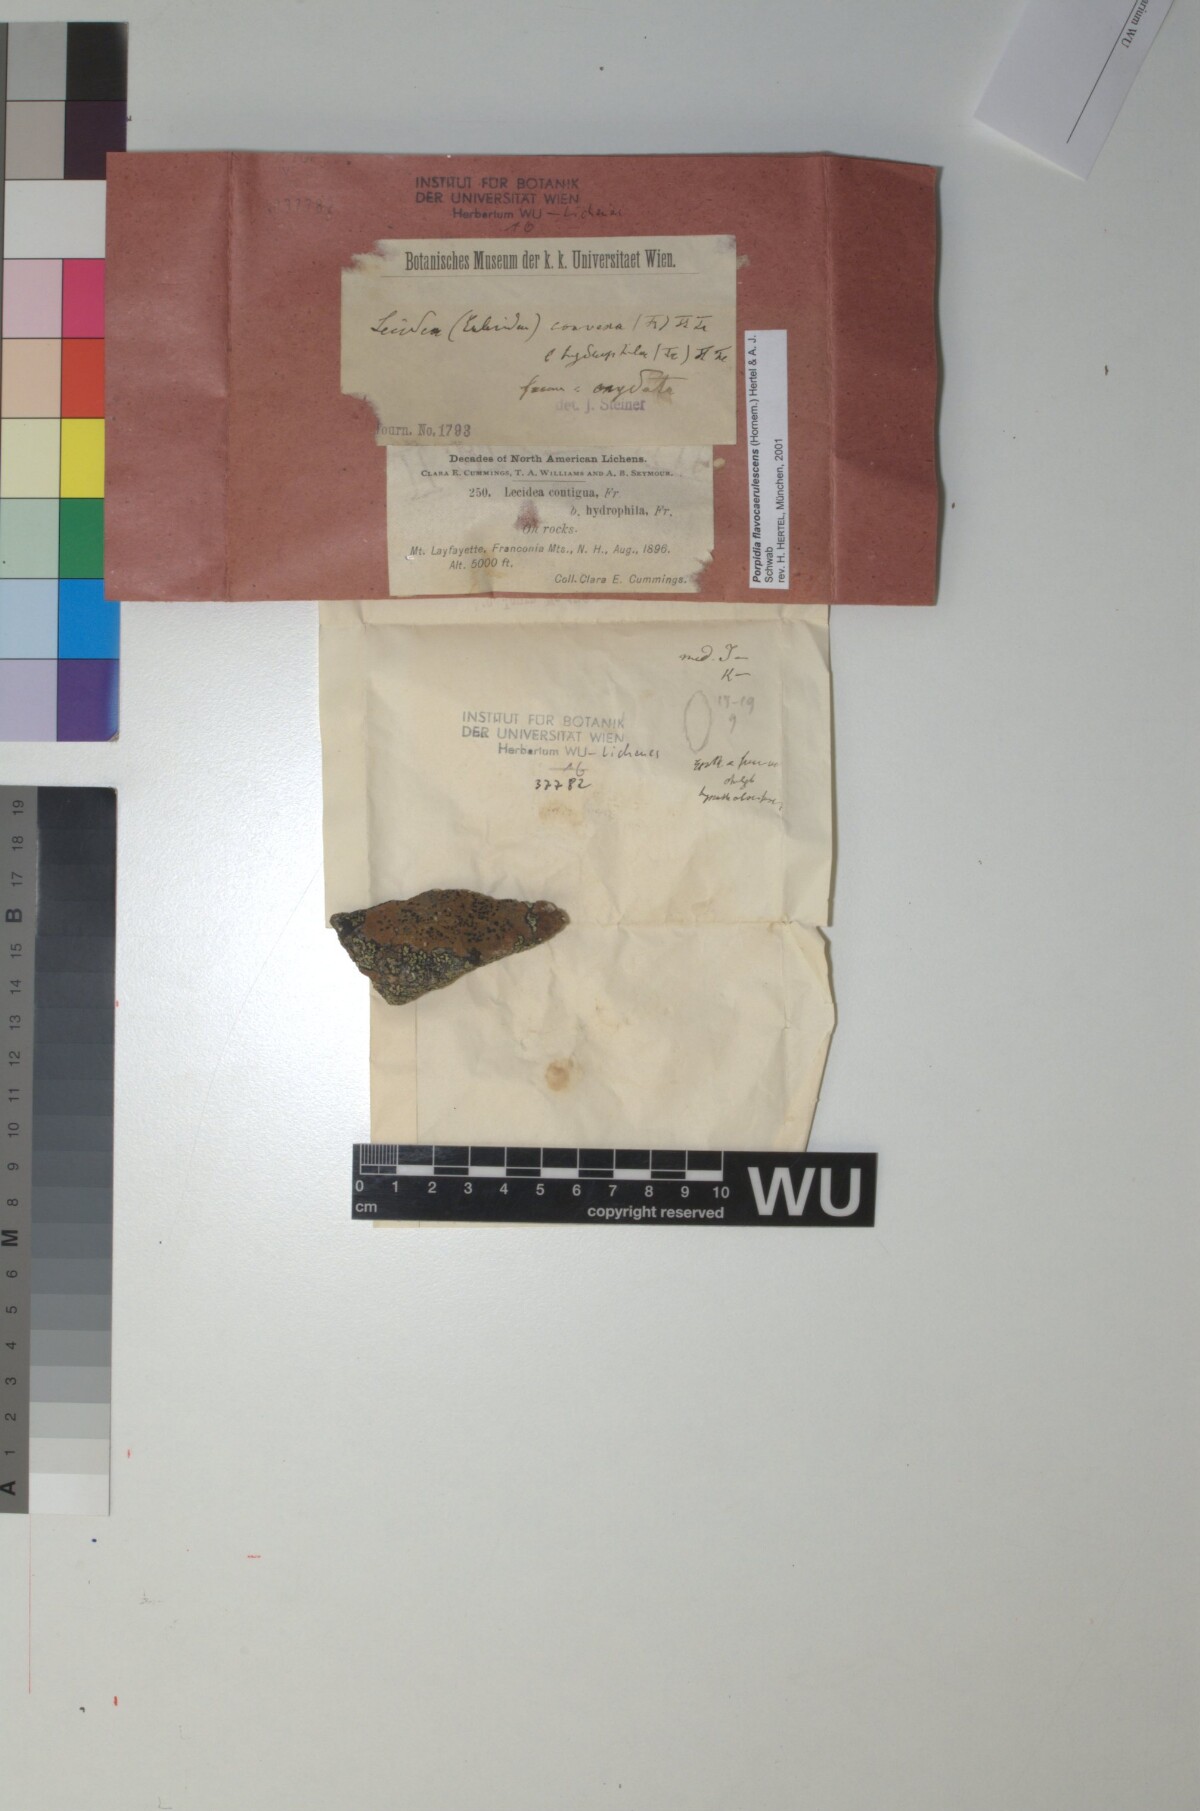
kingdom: Fungi
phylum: Ascomycota
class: Lecanoromycetes
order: Lecideales
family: Lecideaceae
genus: Porpidia
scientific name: Porpidia flavicunda
